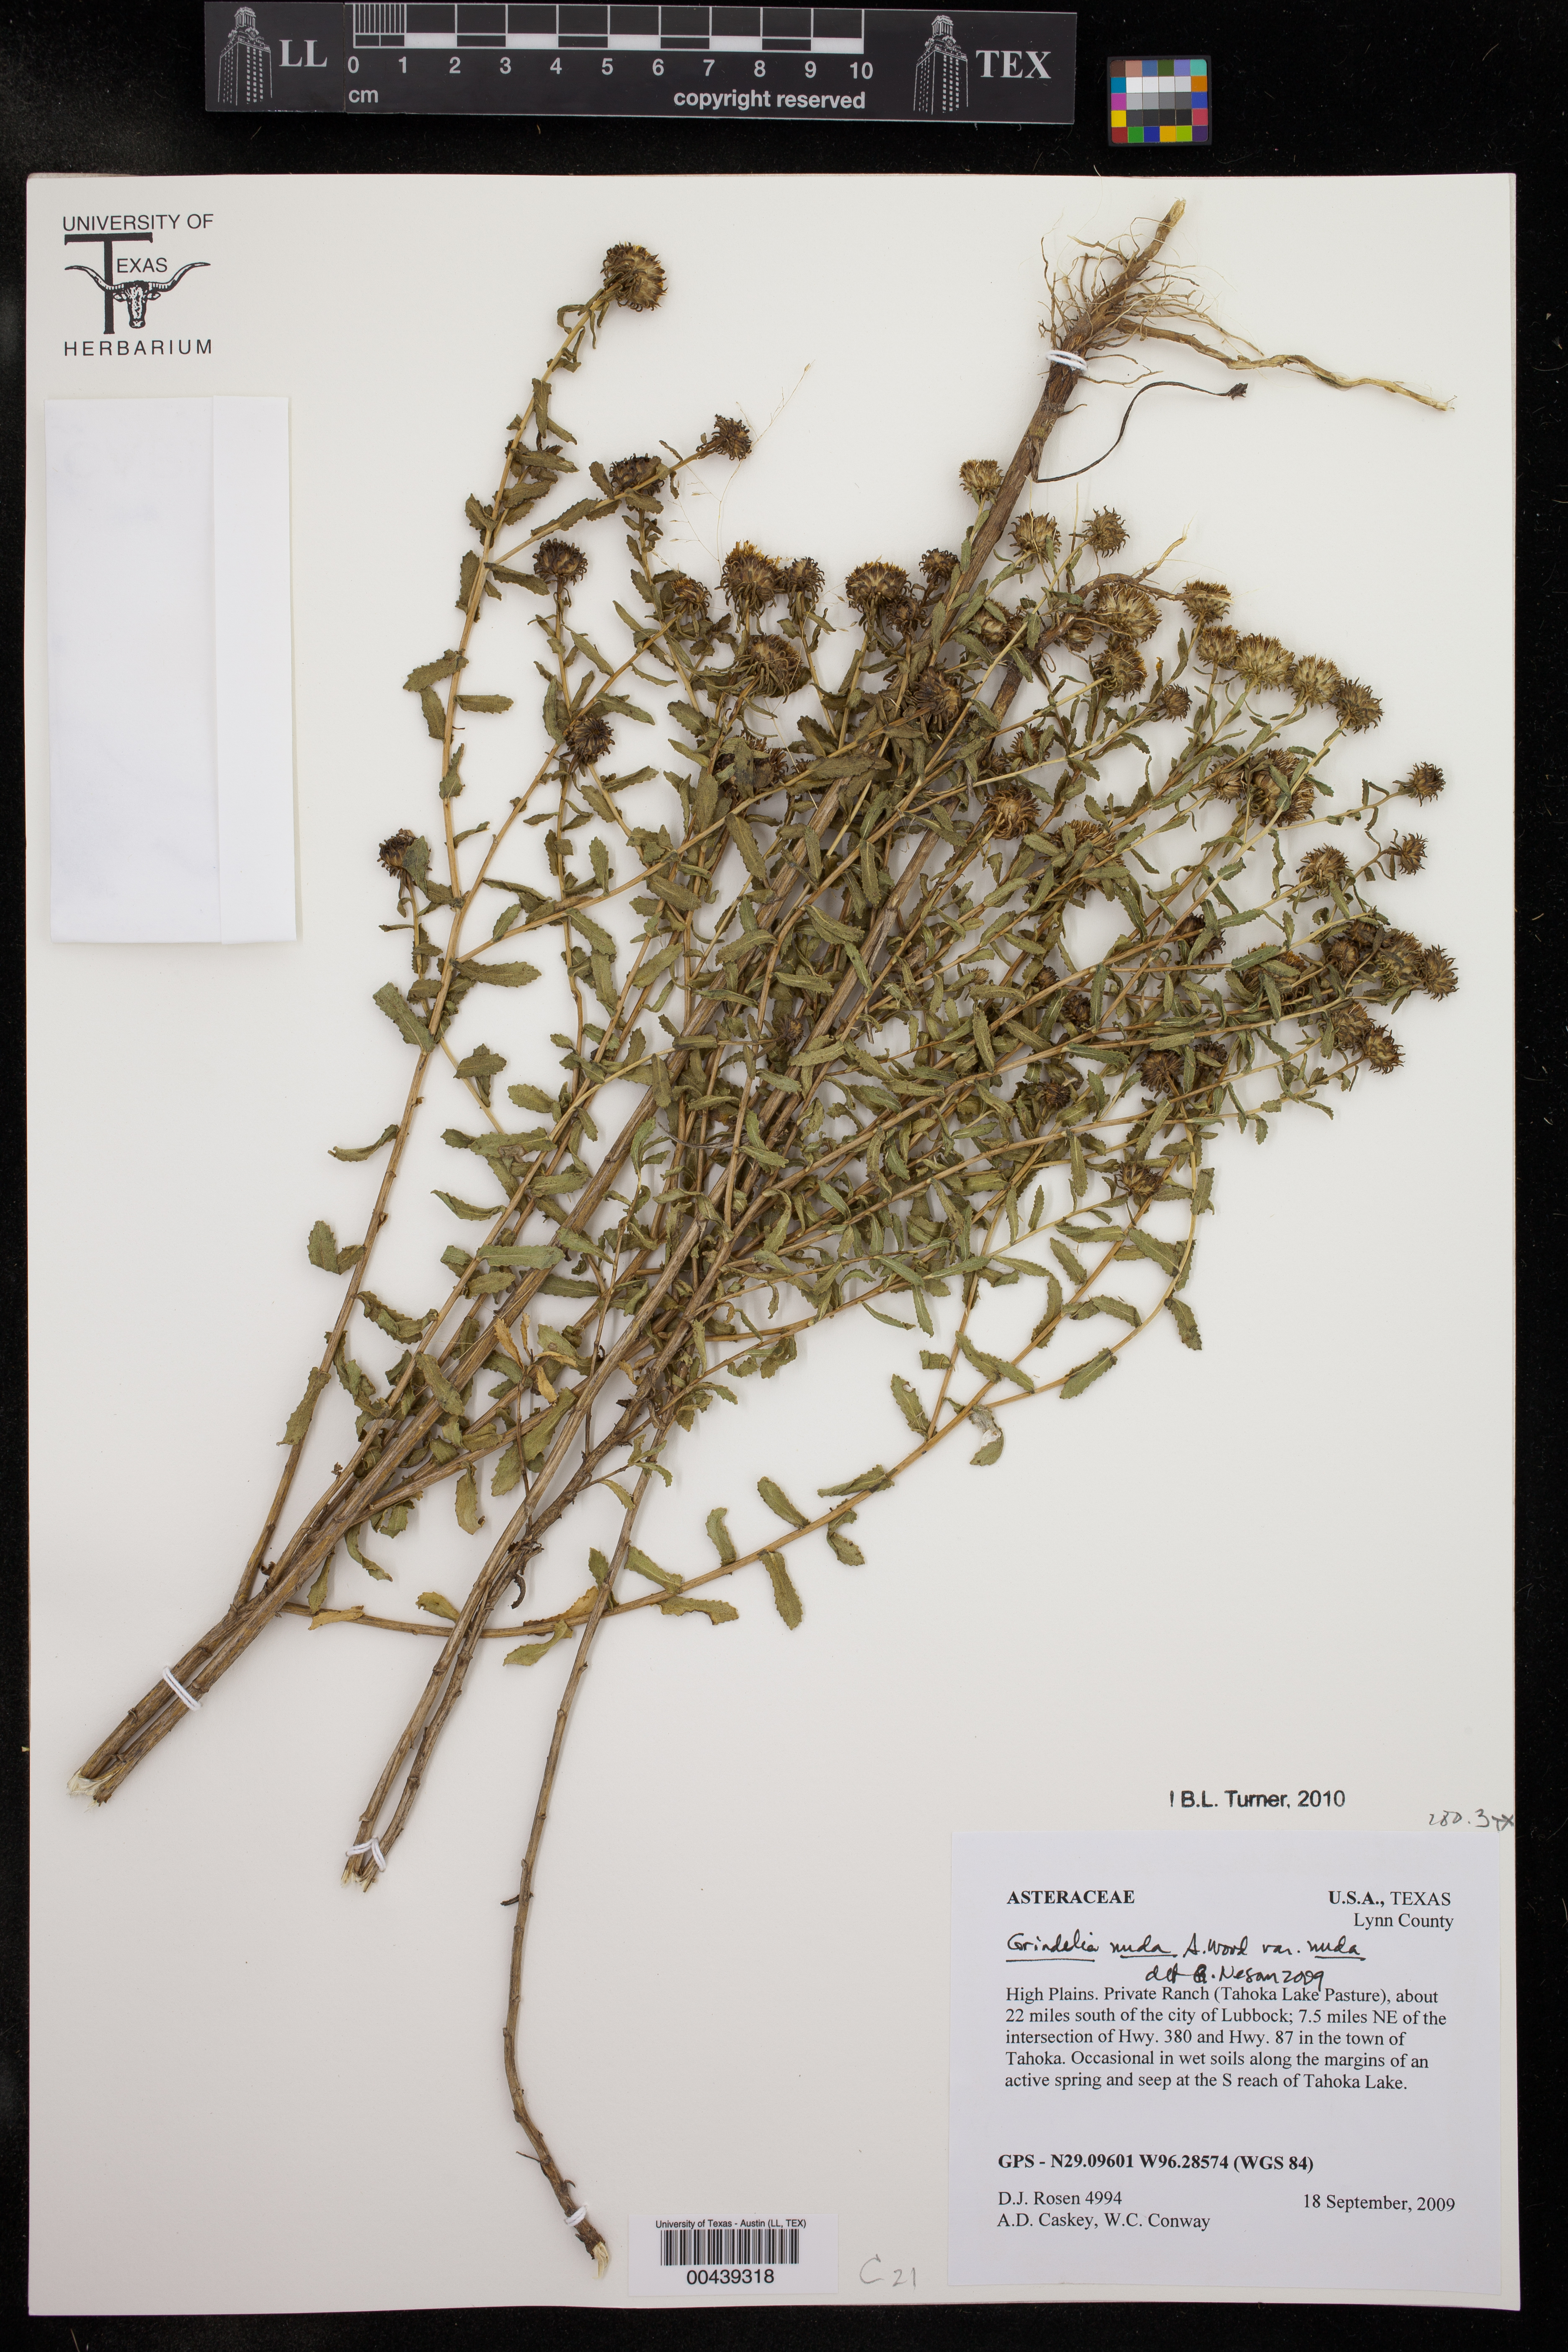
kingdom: Plantae
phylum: Tracheophyta
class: Magnoliopsida
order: Asterales
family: Asteraceae
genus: Grindelia
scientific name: Grindelia nuda
